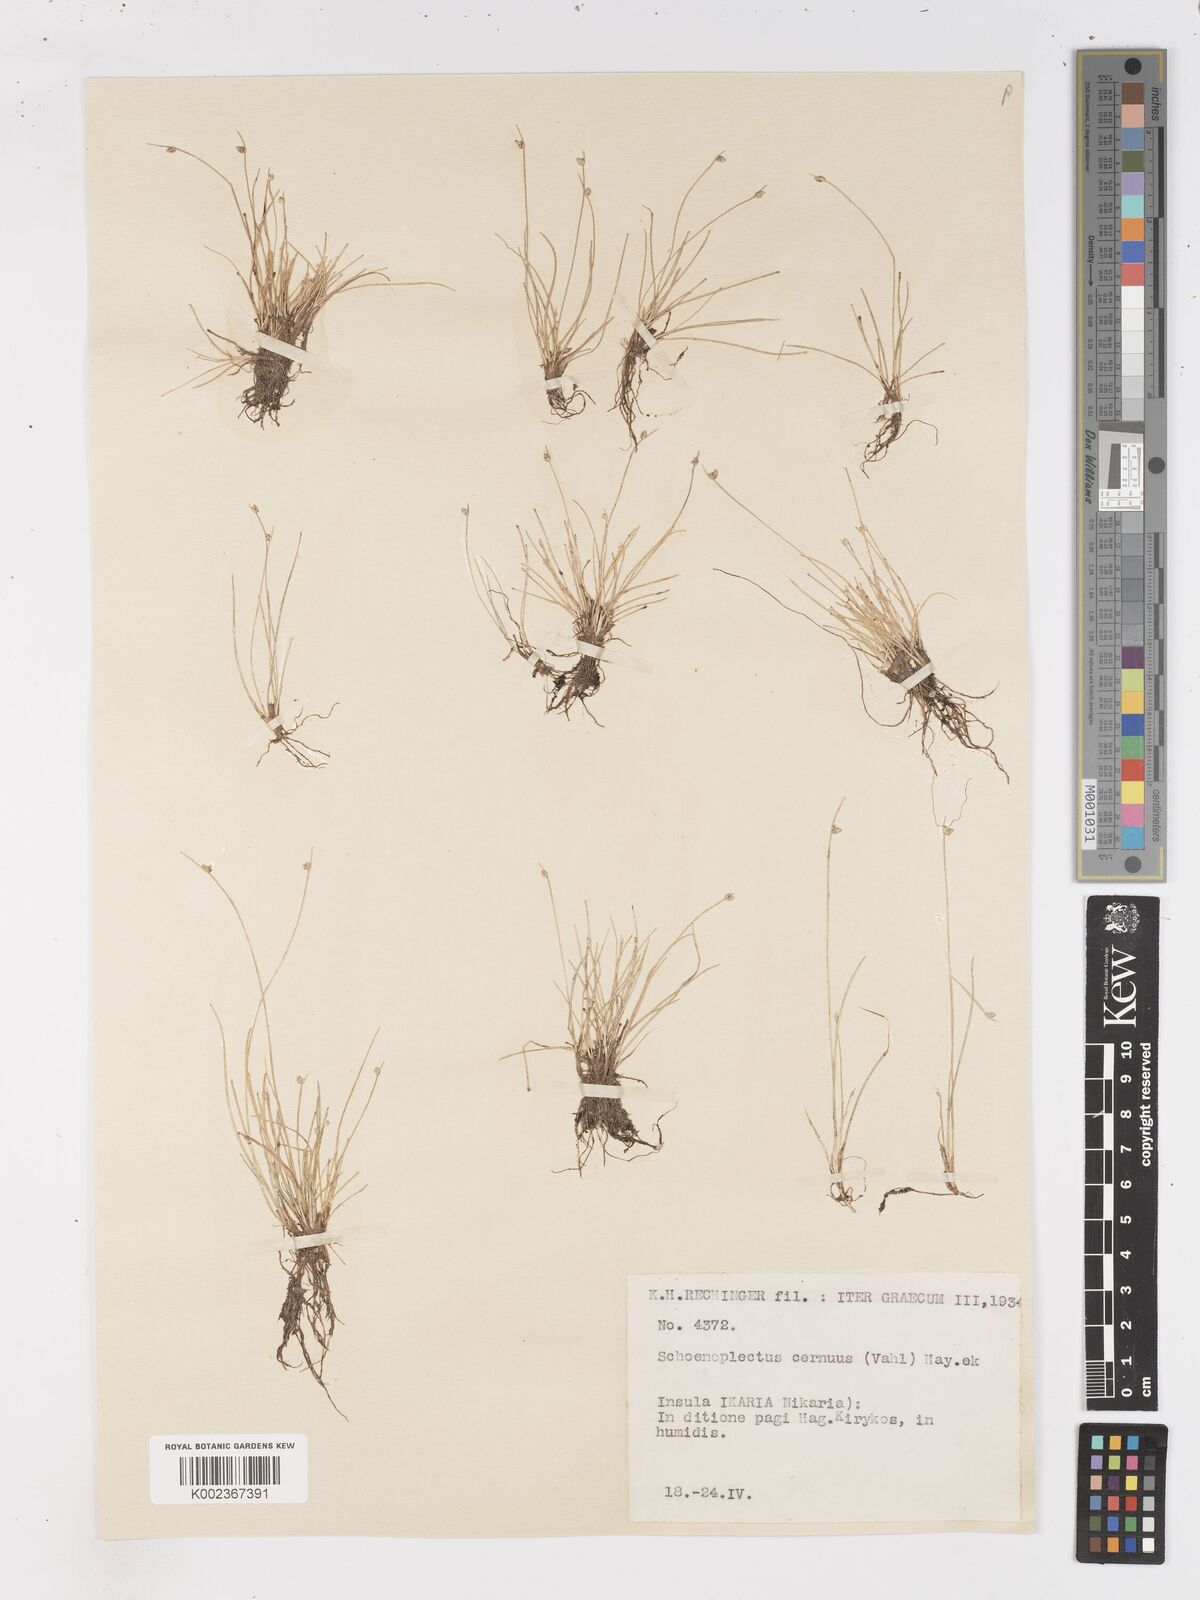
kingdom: Plantae
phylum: Tracheophyta
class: Liliopsida
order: Poales
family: Cyperaceae
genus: Isolepis
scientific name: Isolepis cernua
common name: Slender club-rush
